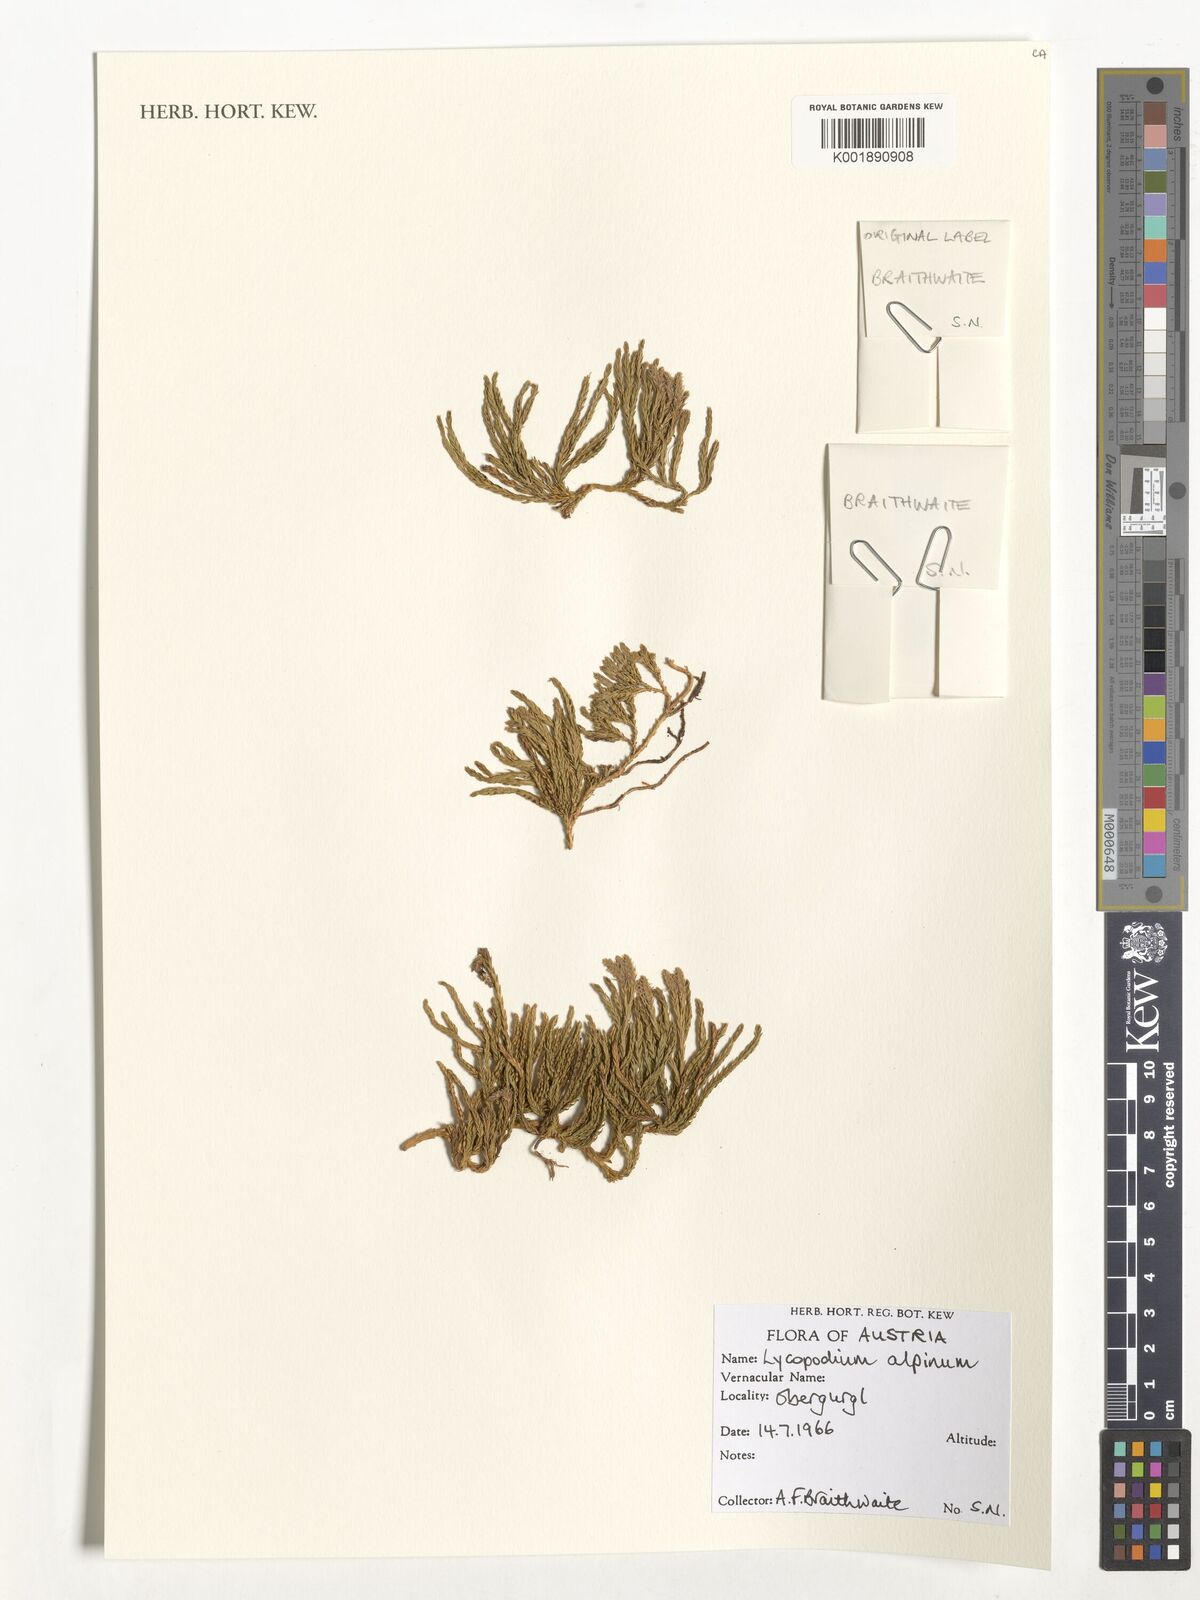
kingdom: Plantae
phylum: Tracheophyta
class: Lycopodiopsida
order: Lycopodiales
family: Lycopodiaceae
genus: Diphasiastrum
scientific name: Diphasiastrum alpinum
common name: Alpine clubmoss
